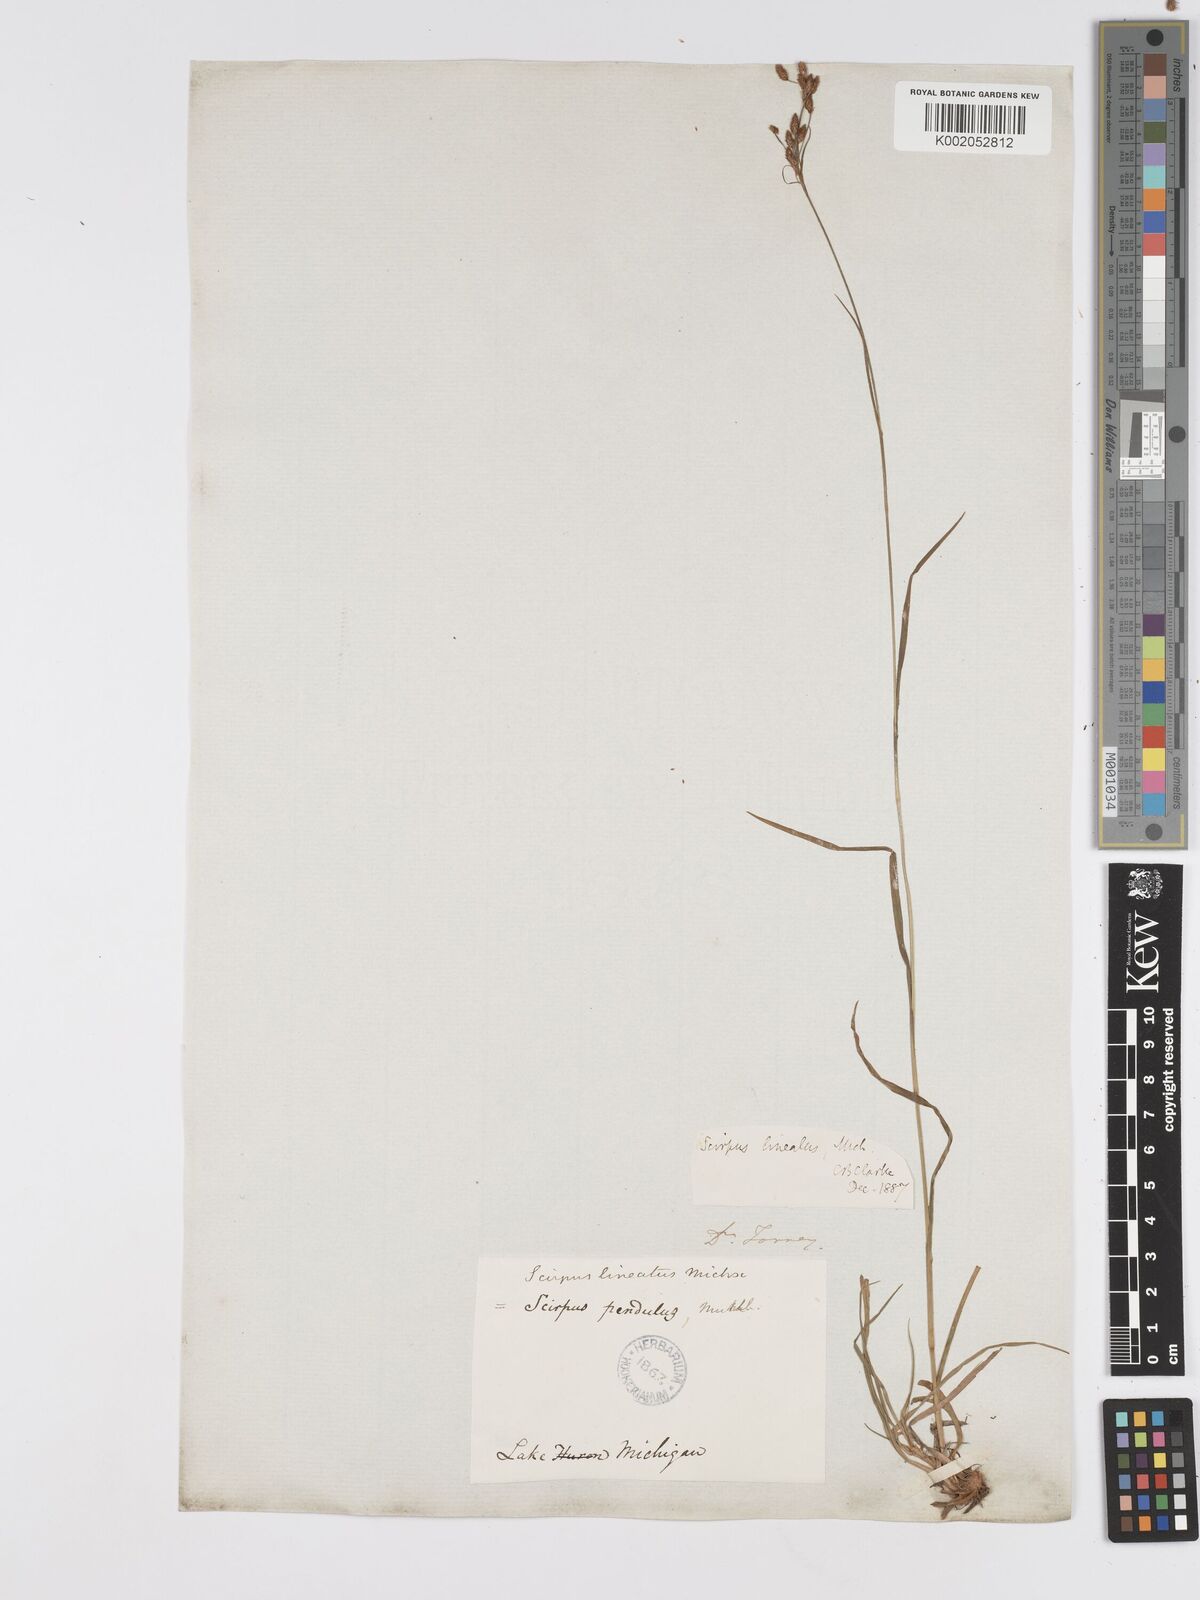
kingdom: Plantae
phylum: Tracheophyta
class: Liliopsida
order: Poales
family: Cyperaceae
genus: Scirpus
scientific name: Scirpus lineatus
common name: Drooping bulrush
